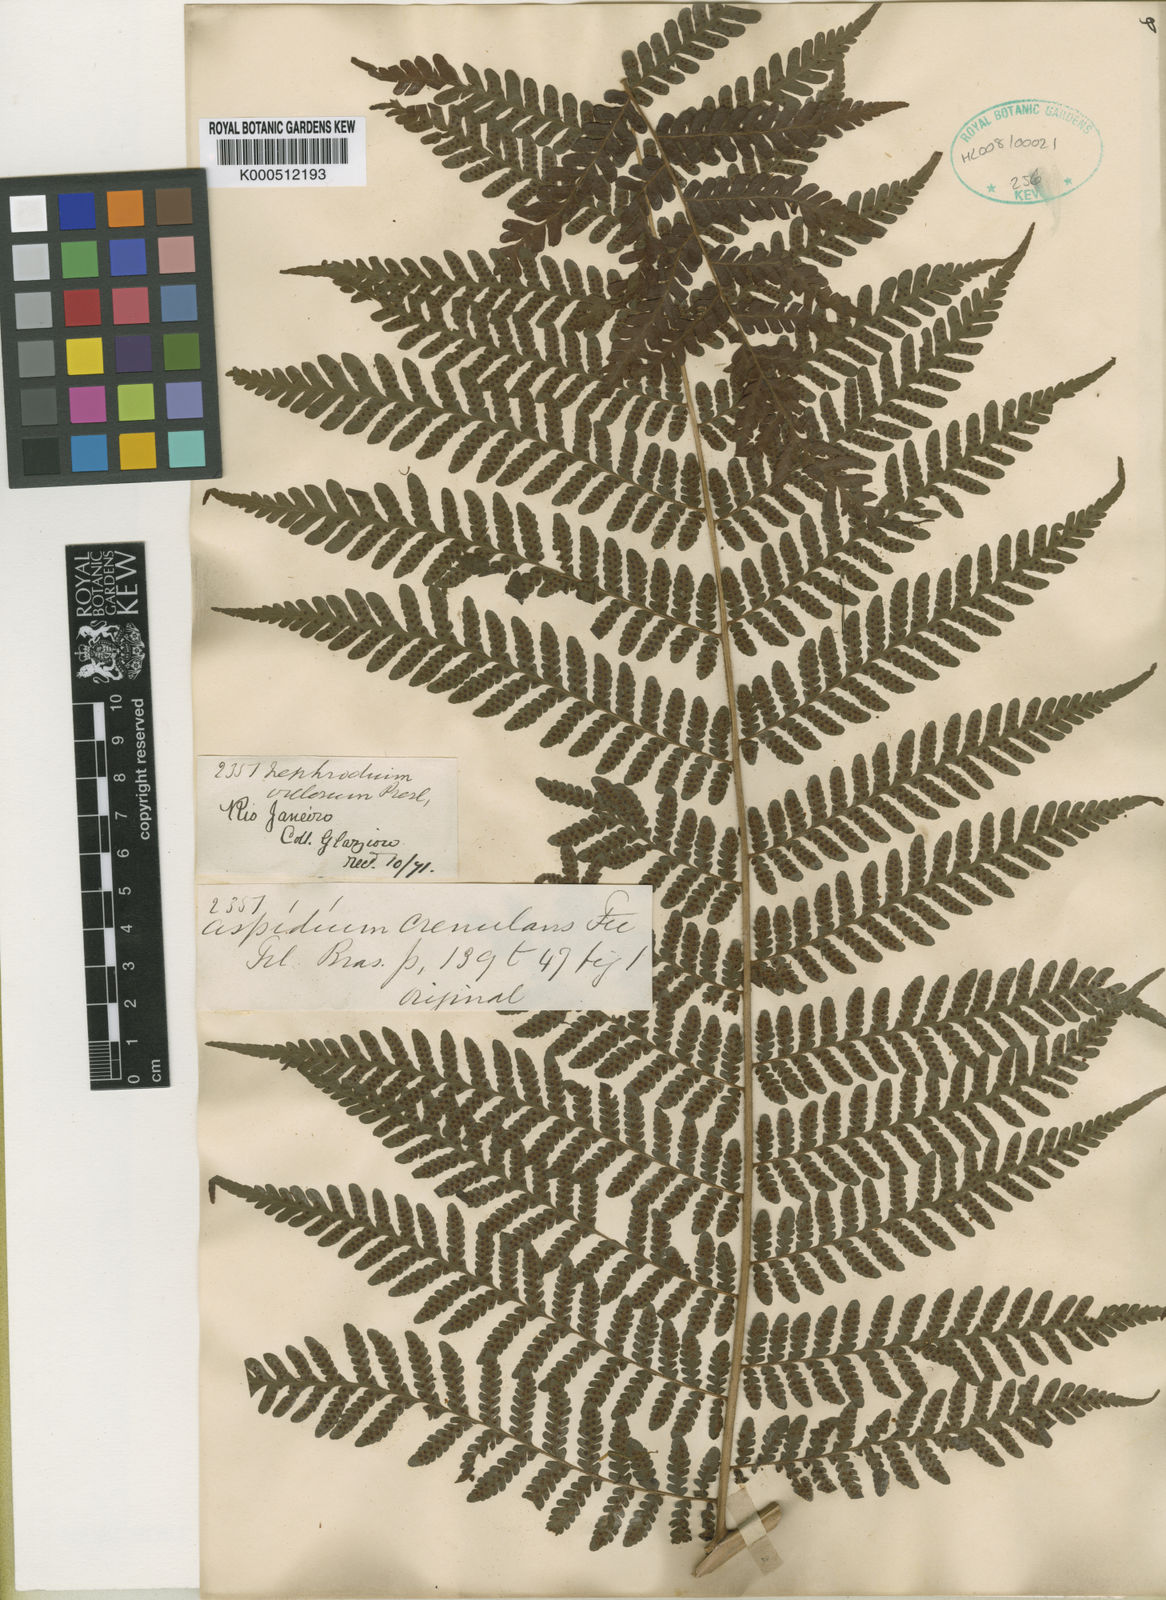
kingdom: Plantae
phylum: Tracheophyta
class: Polypodiopsida
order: Polypodiales
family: Dryopteridaceae
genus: Megalastrum
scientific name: Megalastrum subincisum
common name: Jagleaf junglefern
